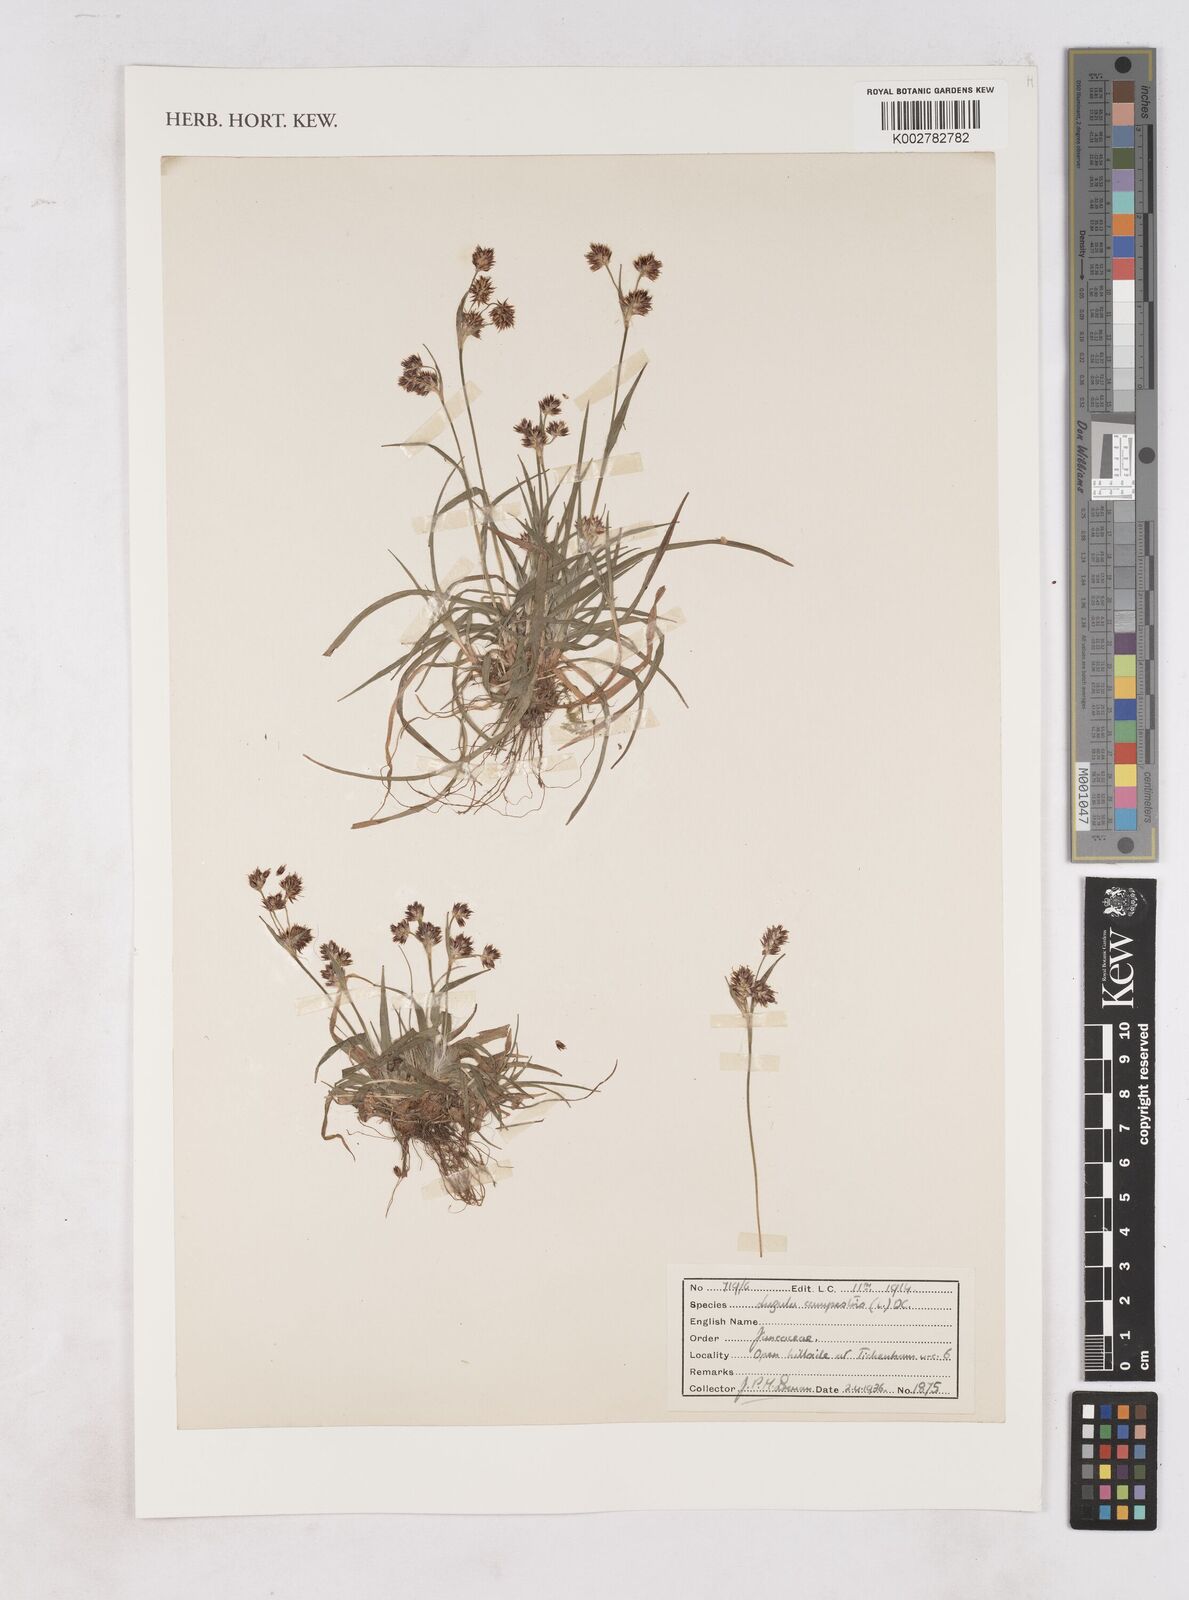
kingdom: Plantae
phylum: Tracheophyta
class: Liliopsida
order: Poales
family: Juncaceae
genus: Luzula
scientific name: Luzula campestris
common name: Field wood-rush
